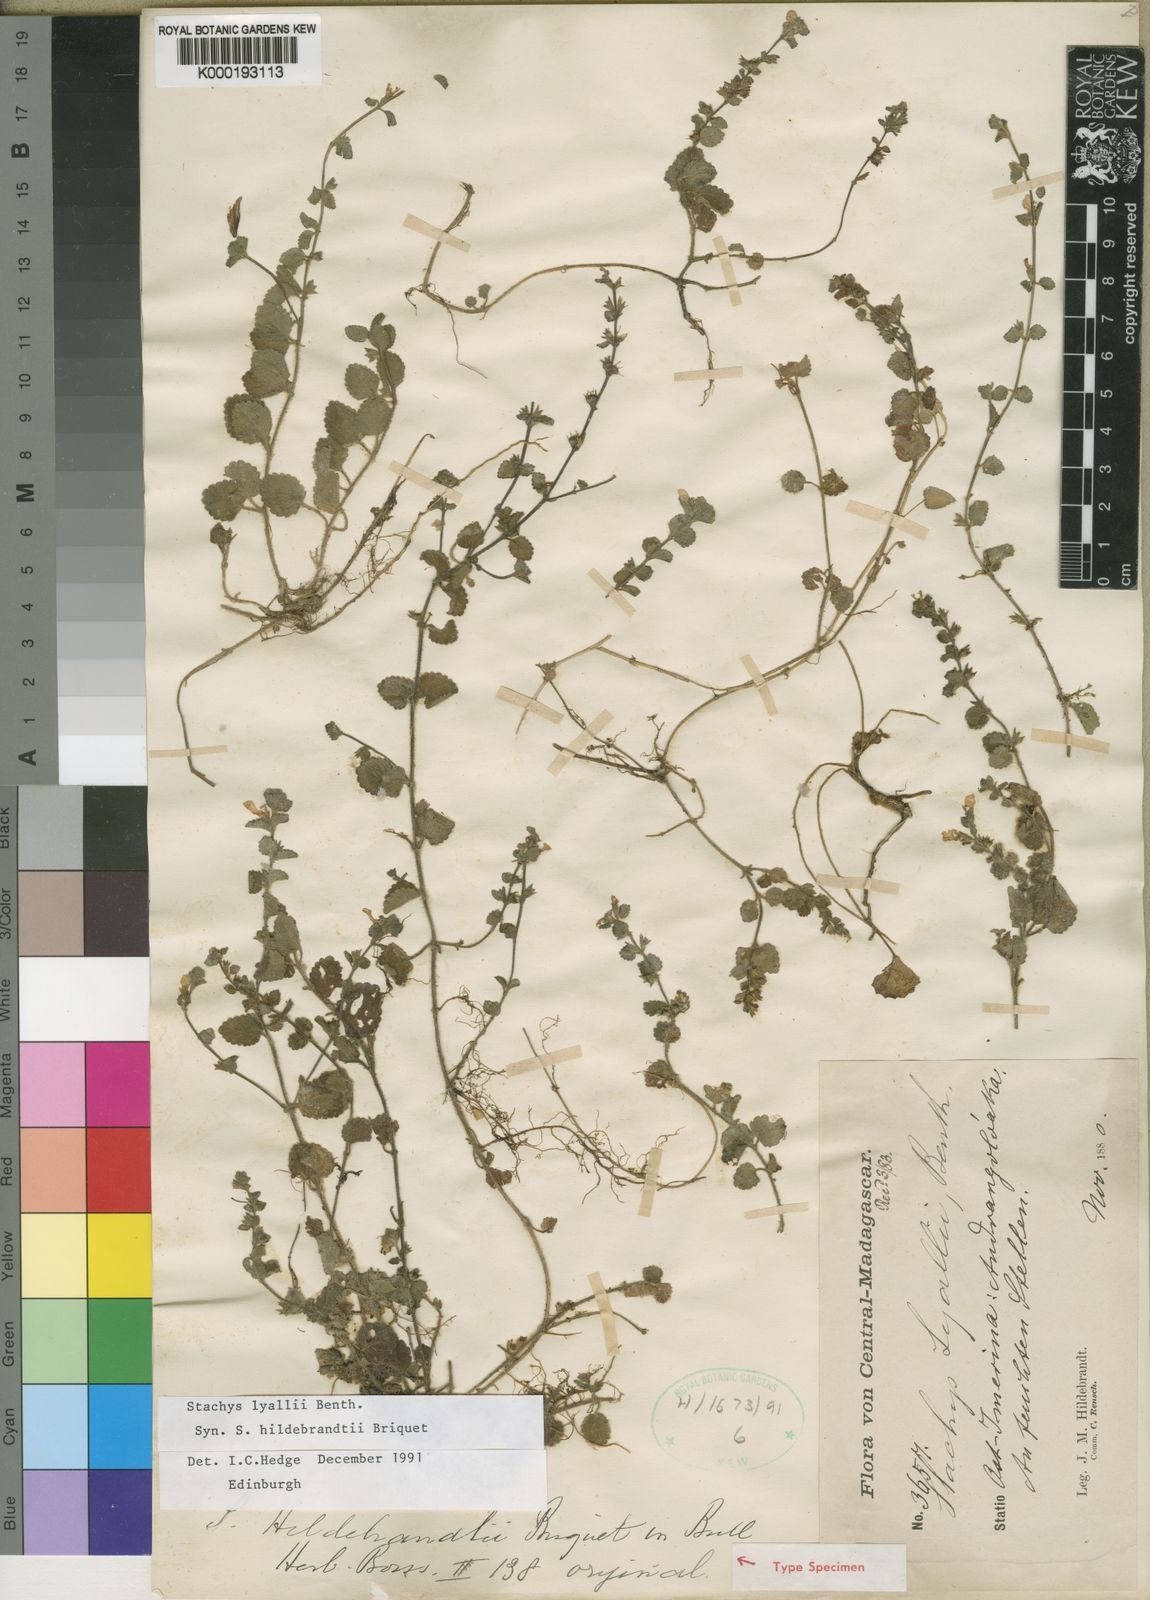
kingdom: Plantae
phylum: Tracheophyta
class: Magnoliopsida
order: Lamiales
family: Lamiaceae
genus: Stachys
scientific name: Stachys lyallii
